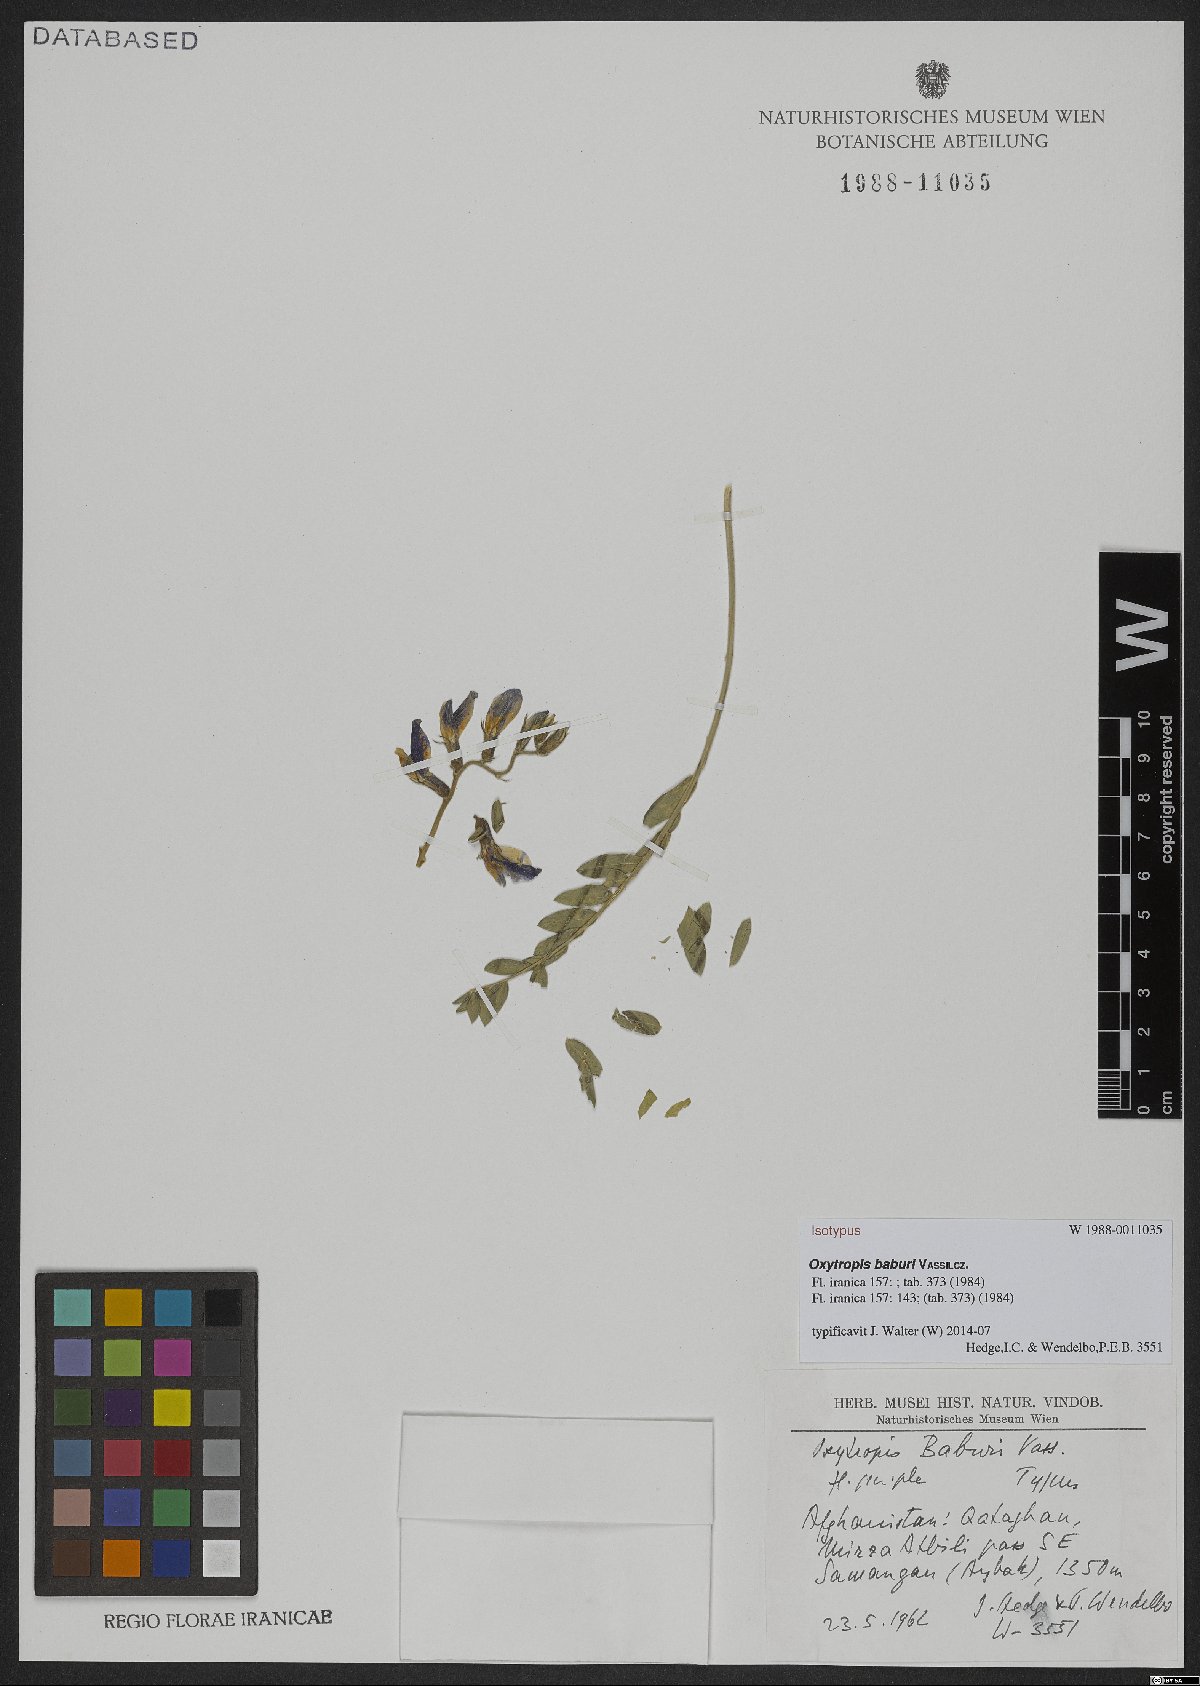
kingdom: Plantae
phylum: Tracheophyta
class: Magnoliopsida
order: Fabales
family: Fabaceae
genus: Oxytropis
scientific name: Oxytropis baburi
